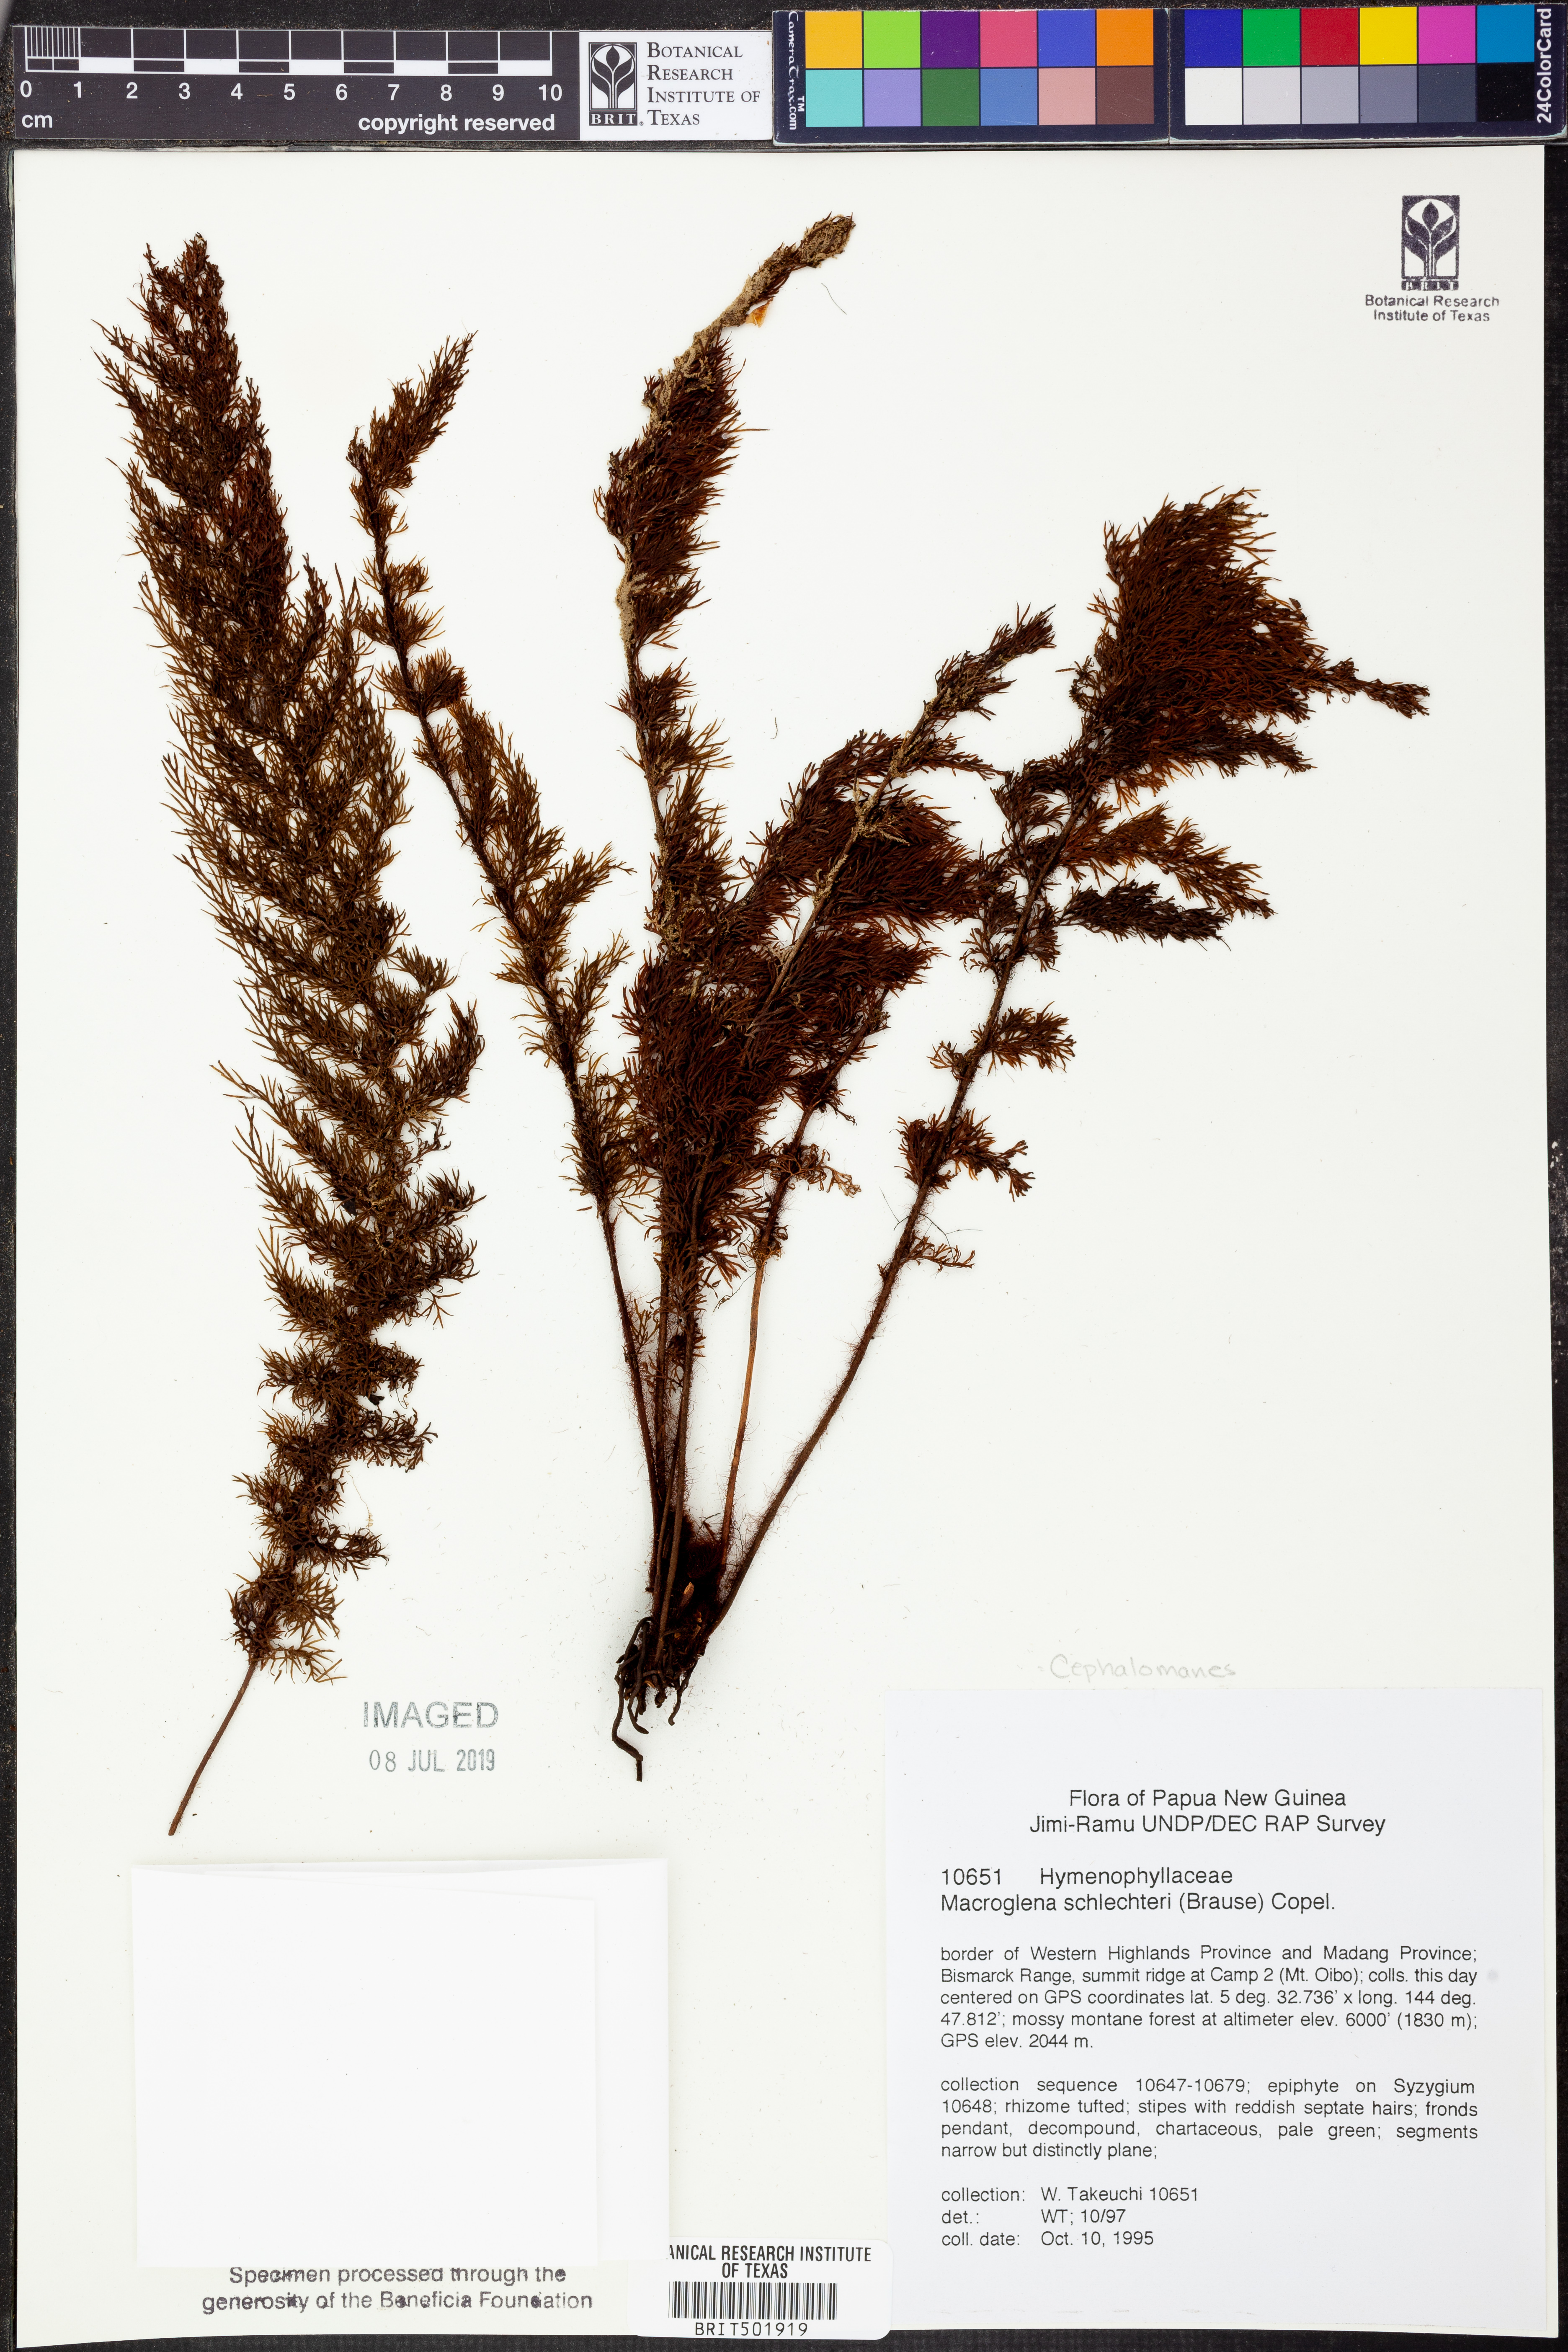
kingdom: Plantae
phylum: Tracheophyta
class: Polypodiopsida
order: Hymenophyllales
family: Hymenophyllaceae
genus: Abrodictyum
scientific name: Abrodictyum schlechteri
